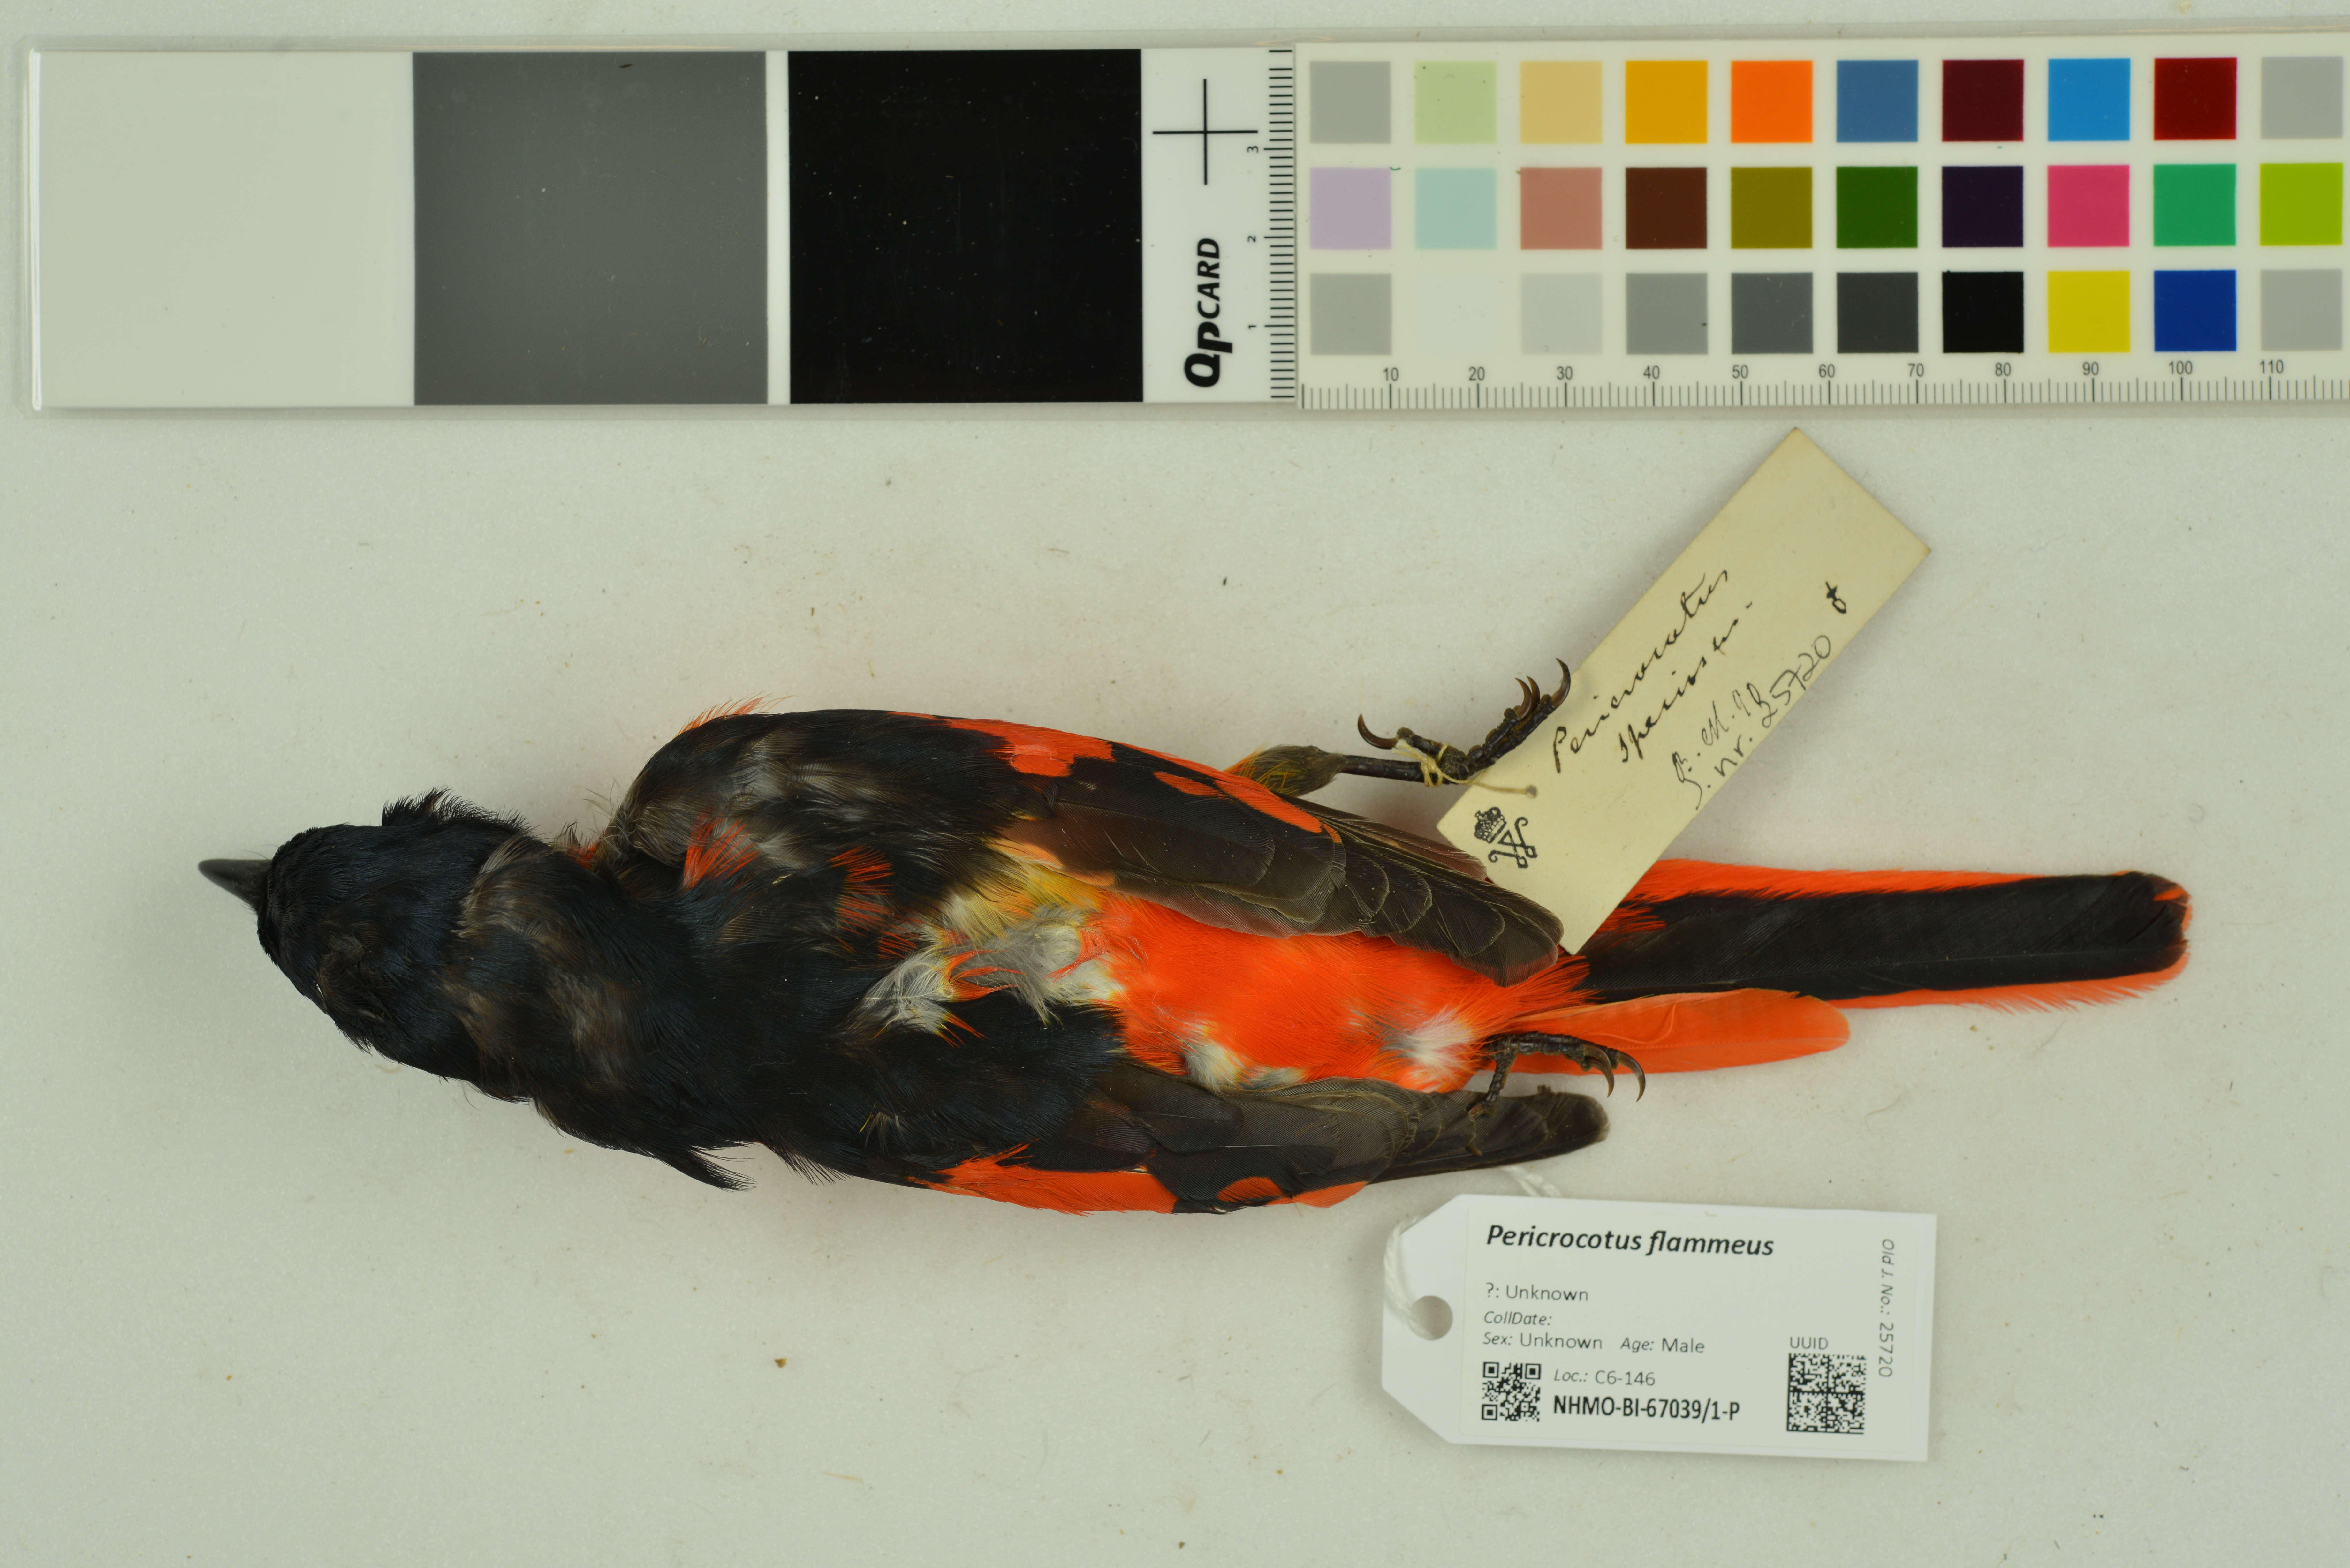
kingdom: Animalia
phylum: Chordata
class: Aves
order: Passeriformes
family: Campephagidae
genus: Pericrocotus
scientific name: Pericrocotus flammeus
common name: Orange minivet
